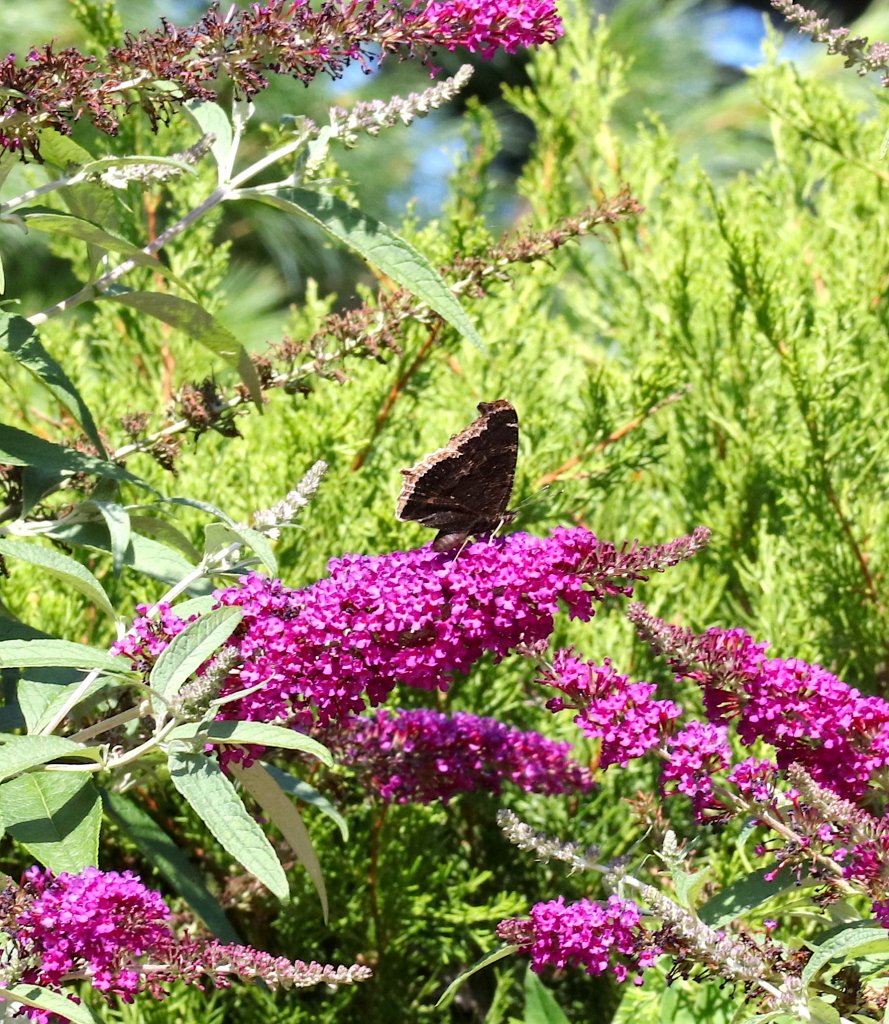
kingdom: Animalia
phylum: Arthropoda
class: Insecta
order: Lepidoptera
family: Nymphalidae
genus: Nymphalis
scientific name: Nymphalis antiopa
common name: Mourning Cloak
